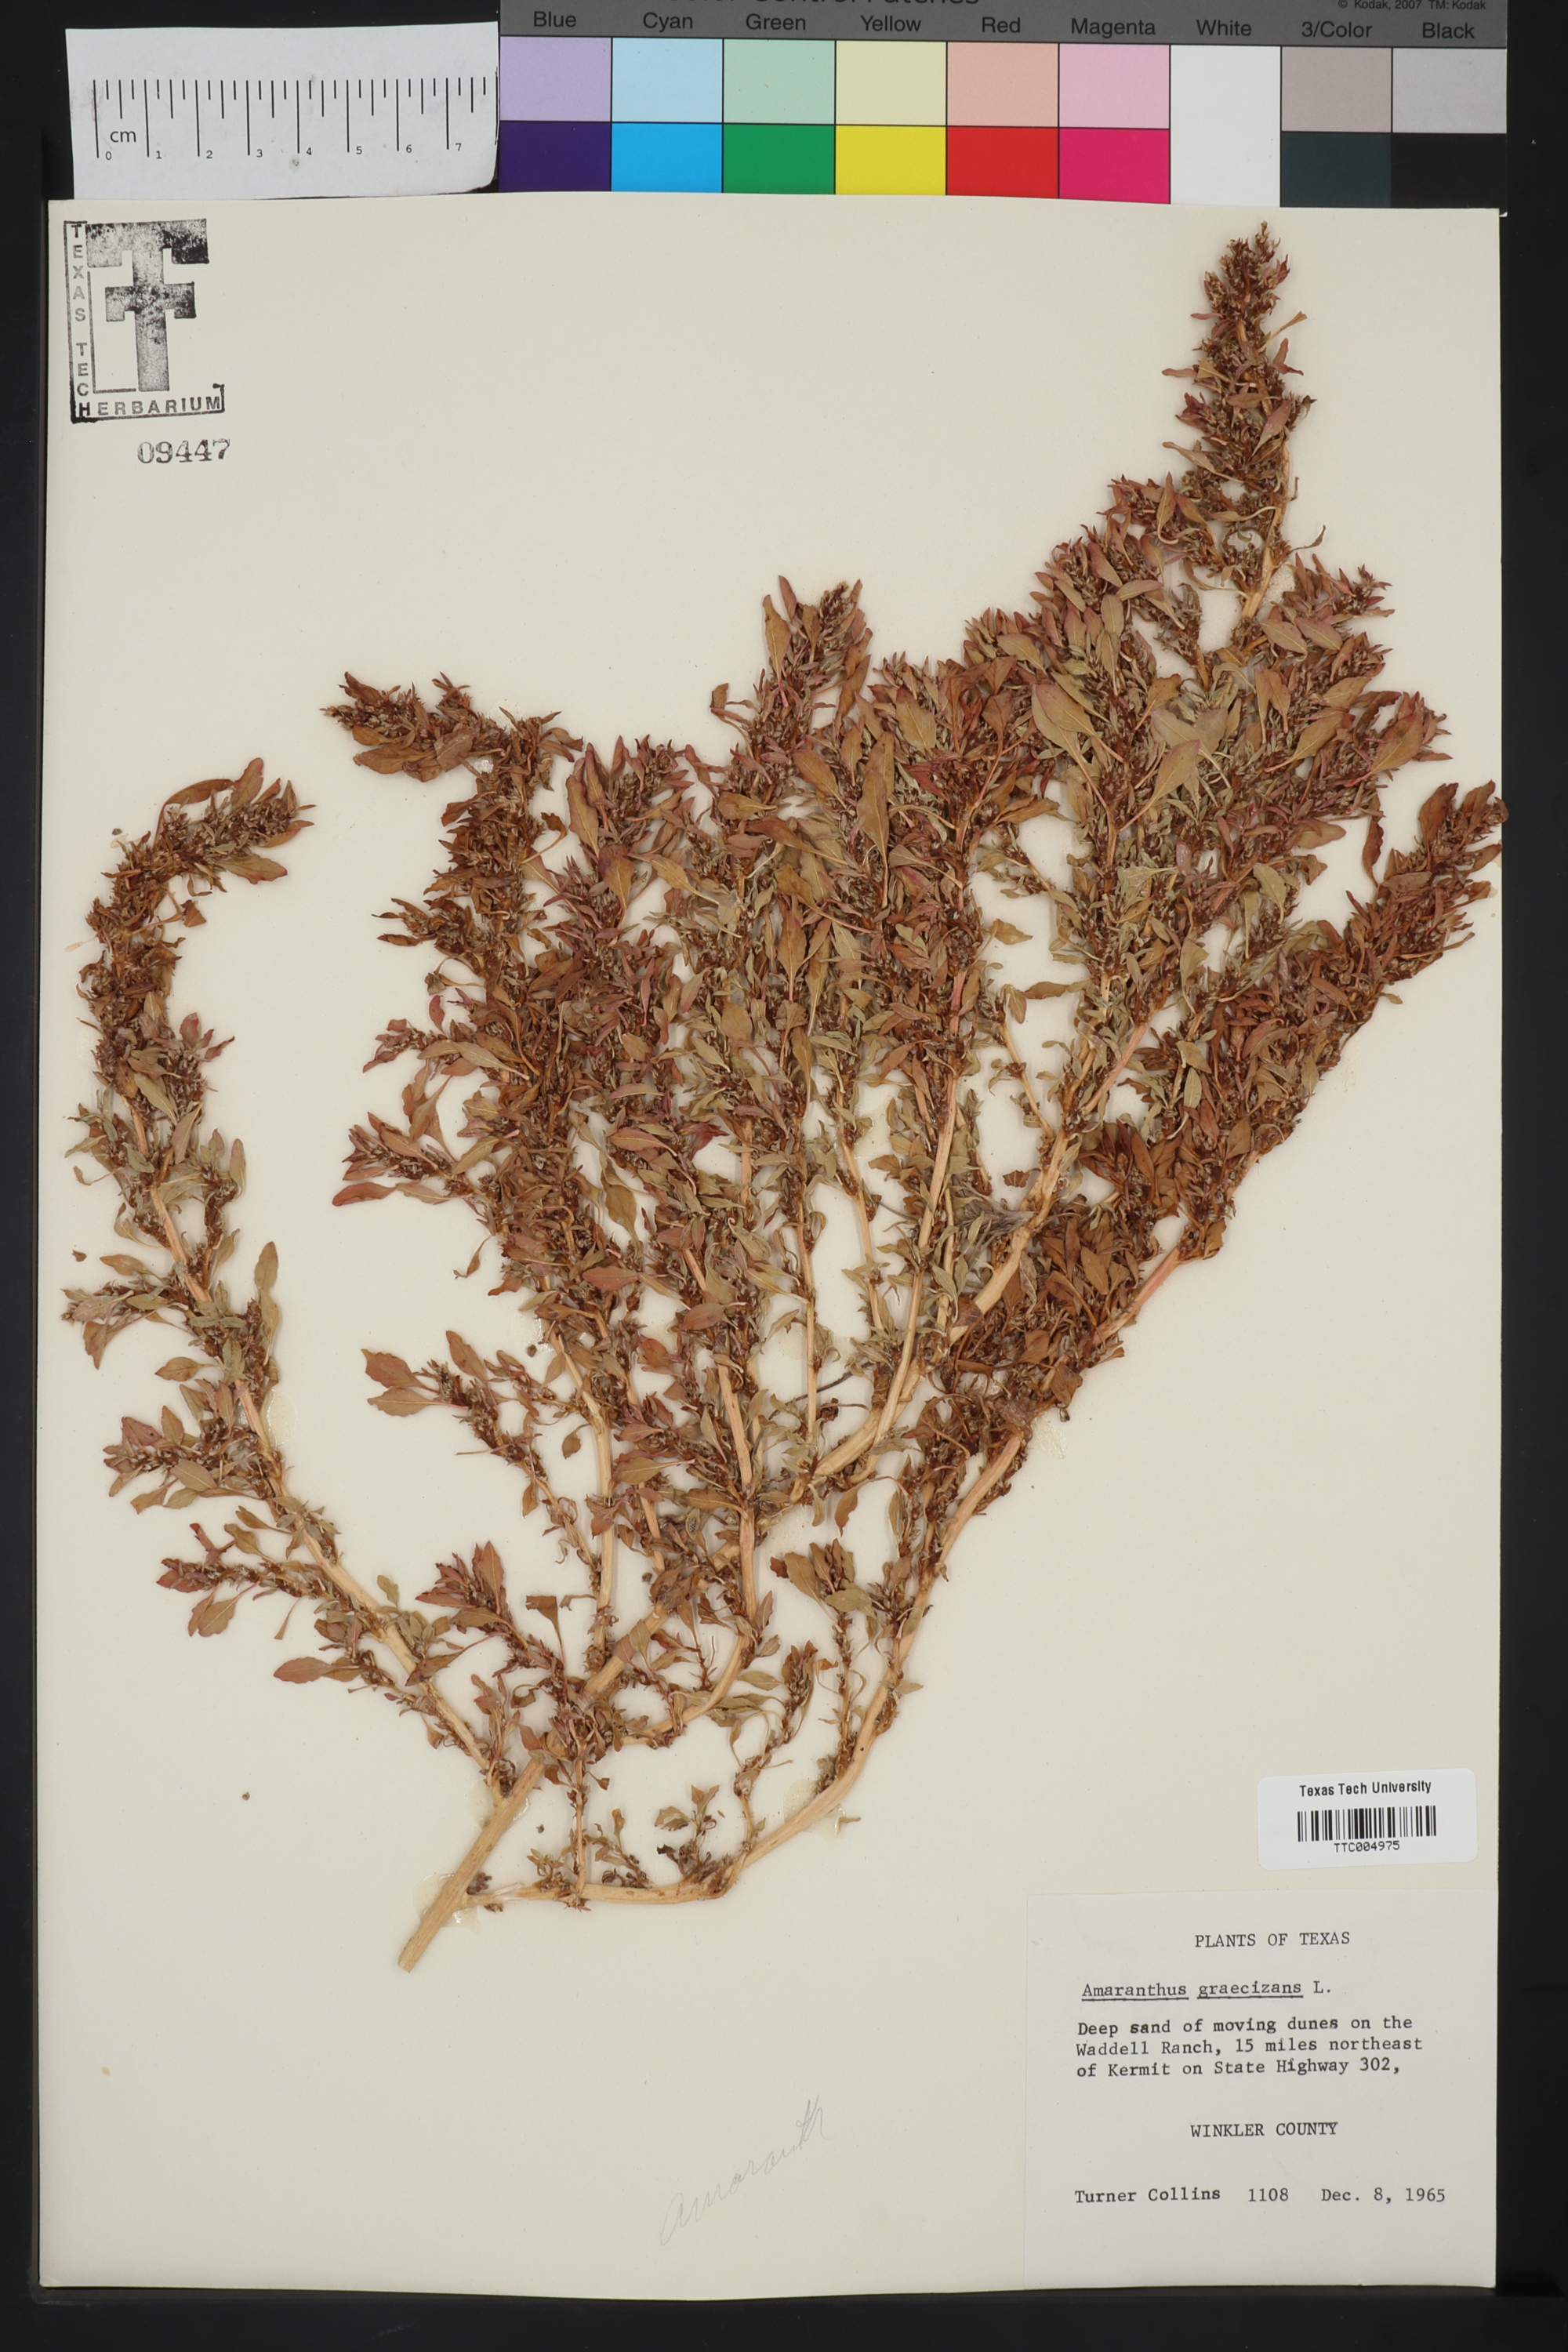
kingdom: Plantae
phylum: Tracheophyta
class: Magnoliopsida
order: Caryophyllales
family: Amaranthaceae
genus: Amaranthus
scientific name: Amaranthus graecizans
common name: Mediterranean amaranth
